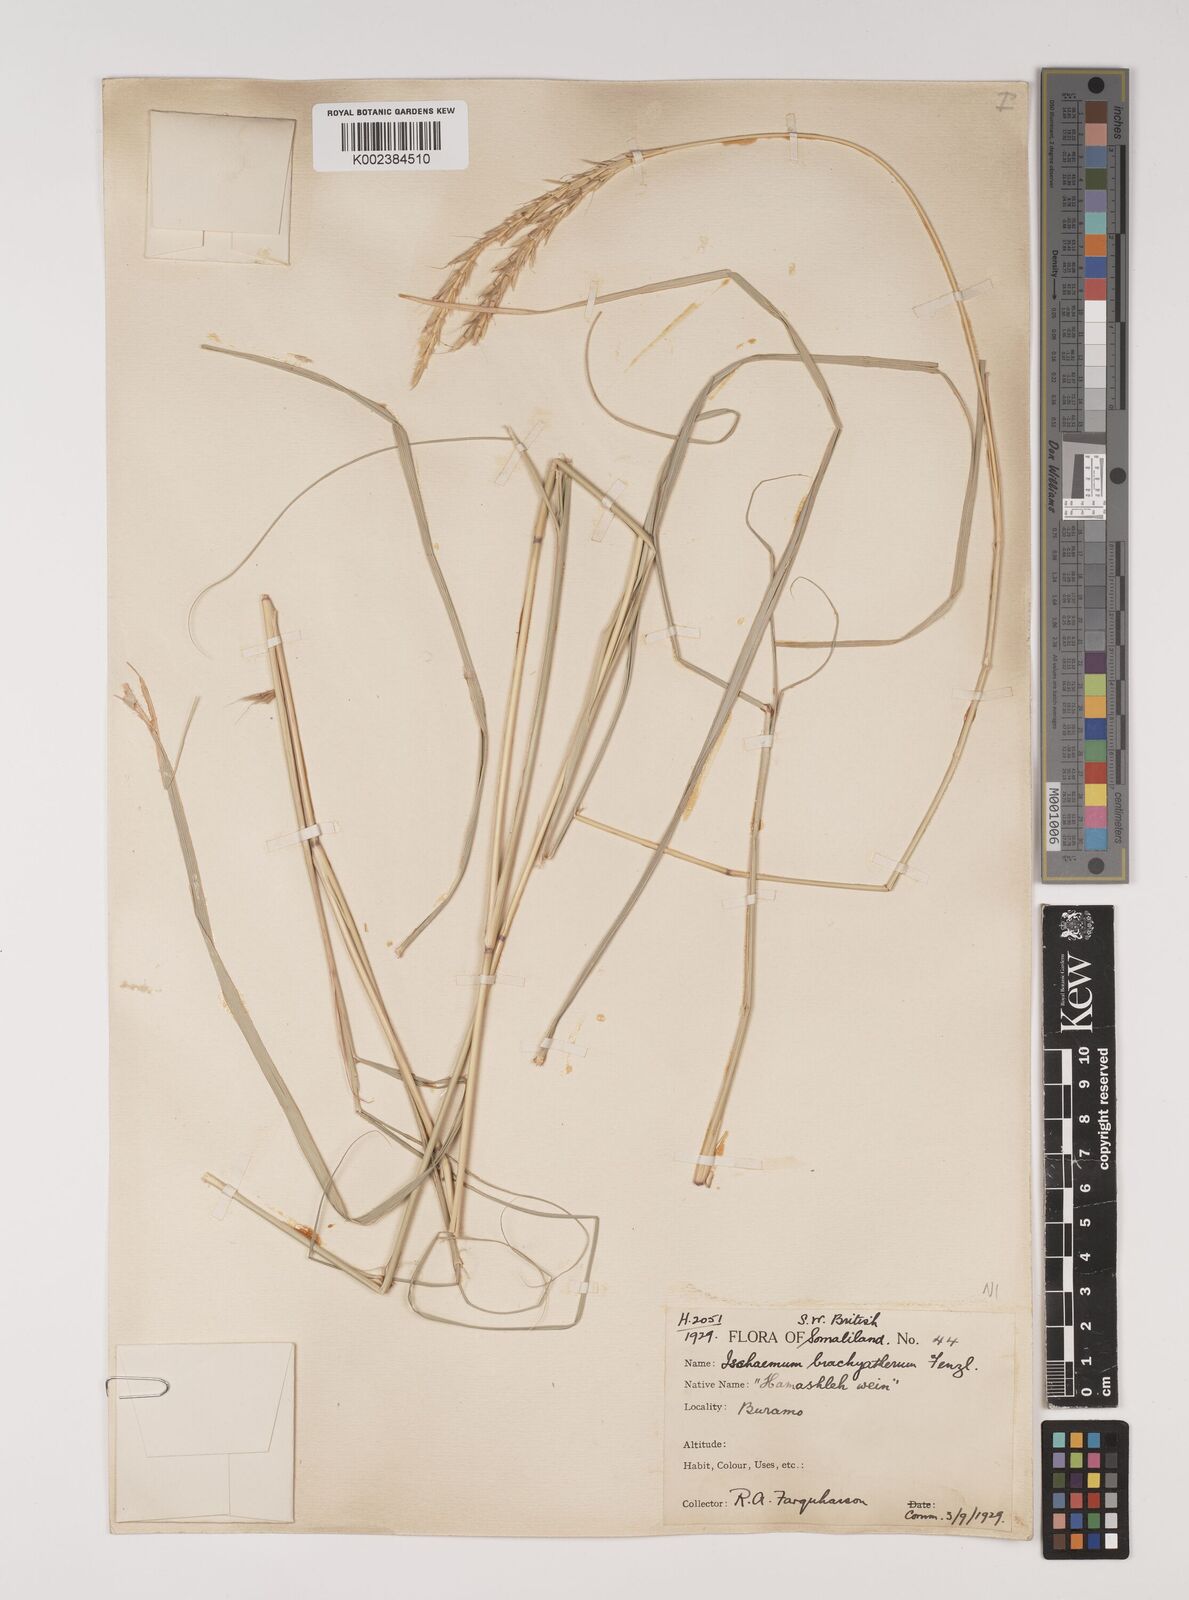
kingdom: Plantae
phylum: Tracheophyta
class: Liliopsida
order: Poales
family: Poaceae
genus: Ischaemum
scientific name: Ischaemum afrum
